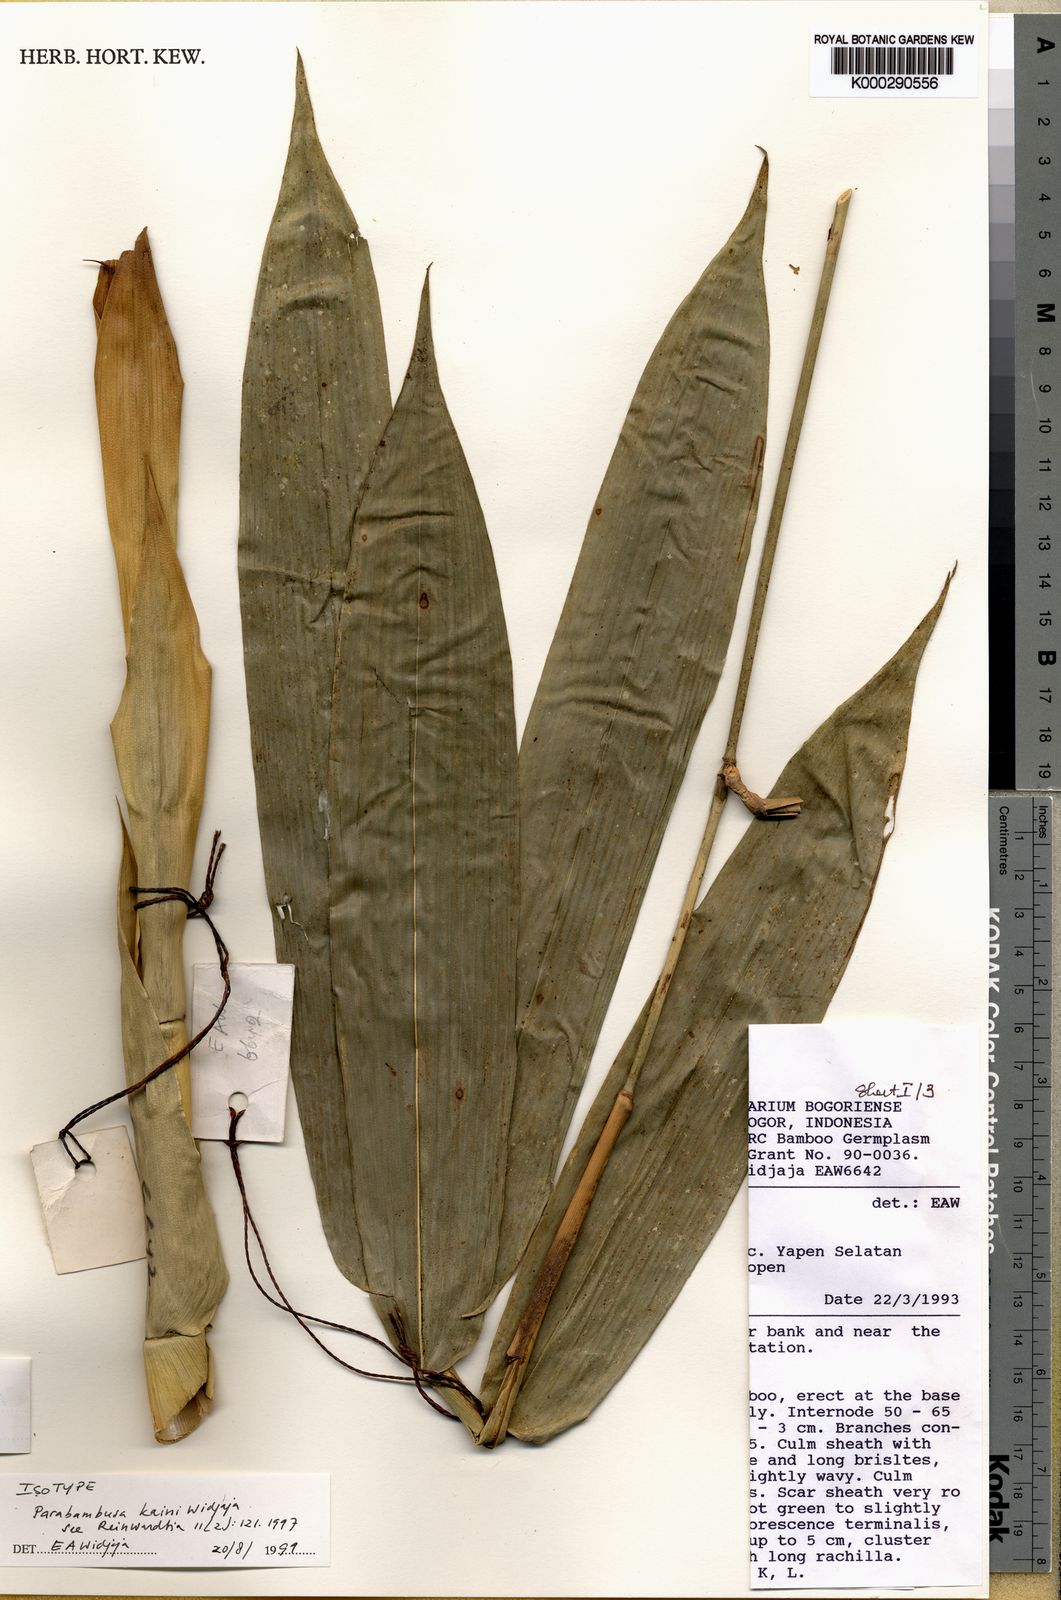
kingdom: Plantae
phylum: Tracheophyta
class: Liliopsida
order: Poales
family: Poaceae
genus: Parabambusa
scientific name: Parabambusa kaini
